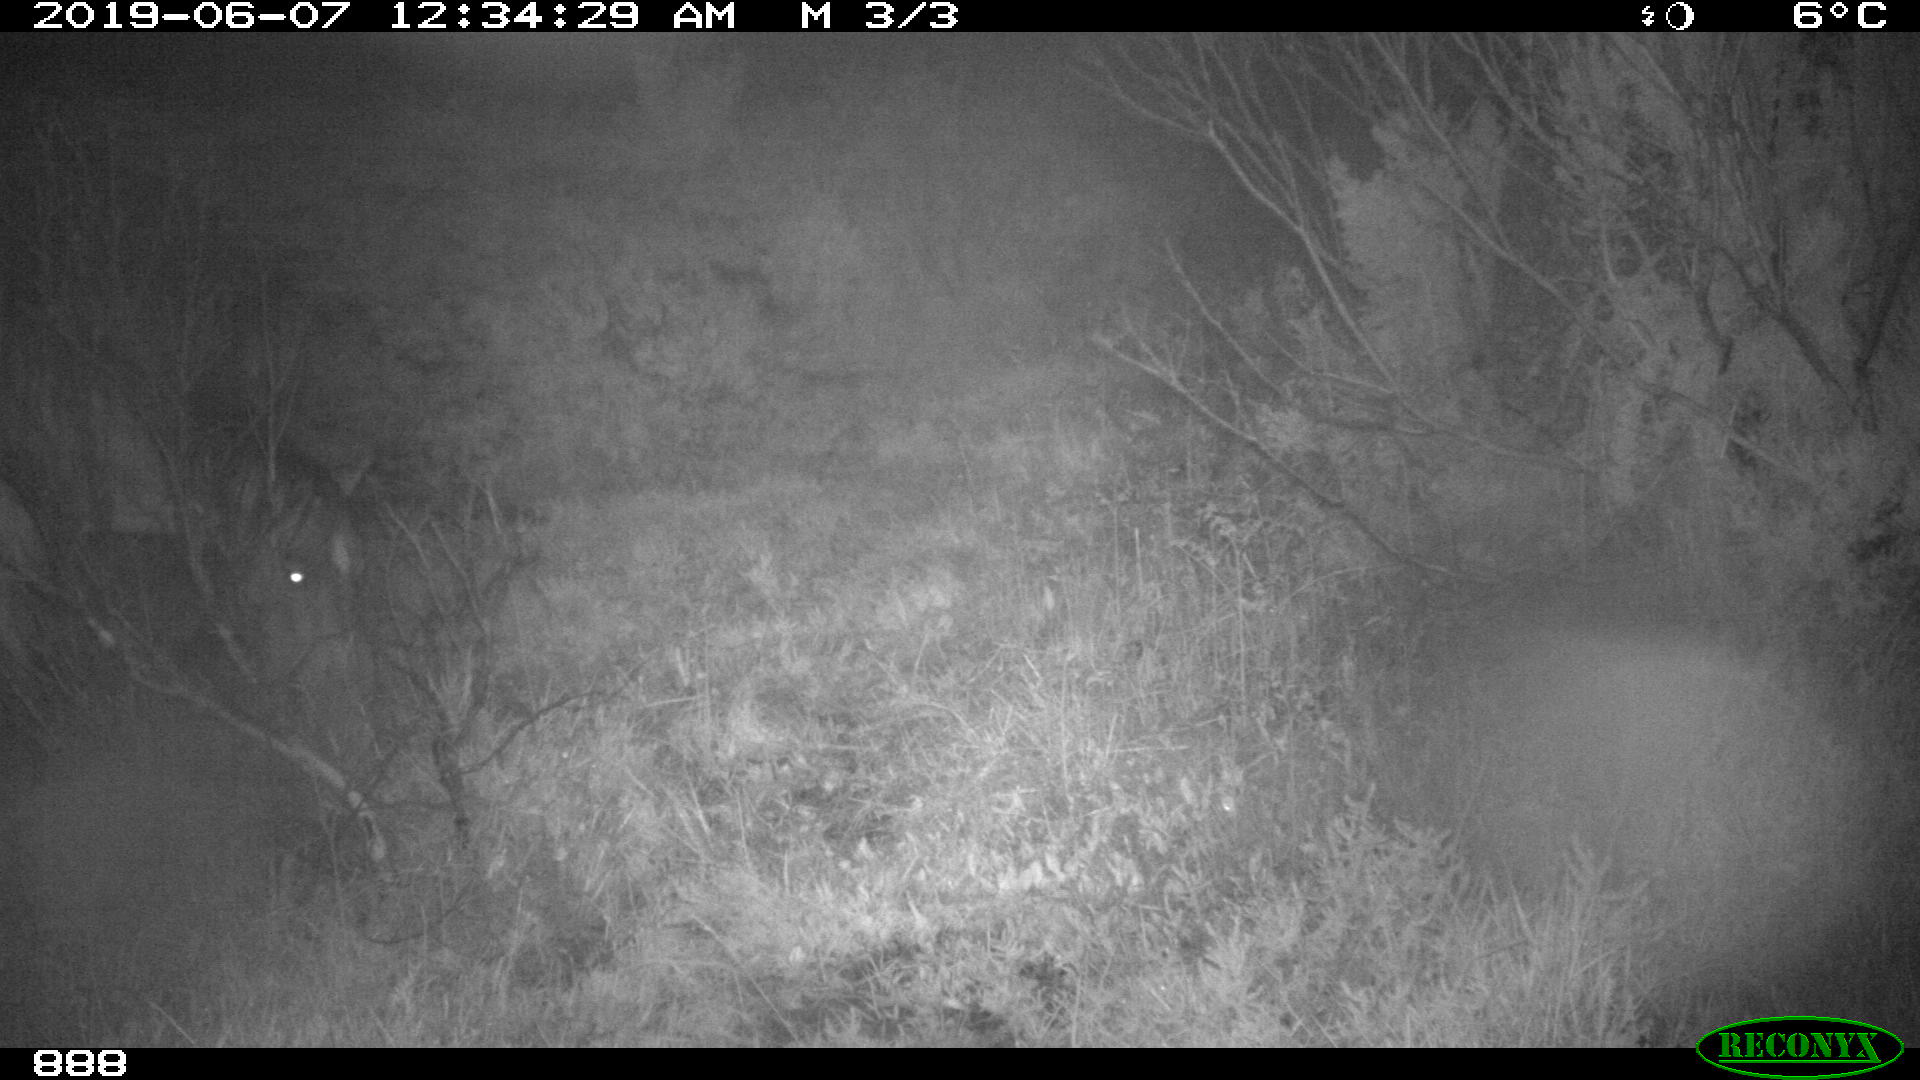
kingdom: Animalia
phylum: Chordata
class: Mammalia
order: Perissodactyla
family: Equidae
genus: Equus
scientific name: Equus caballus
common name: Horse
